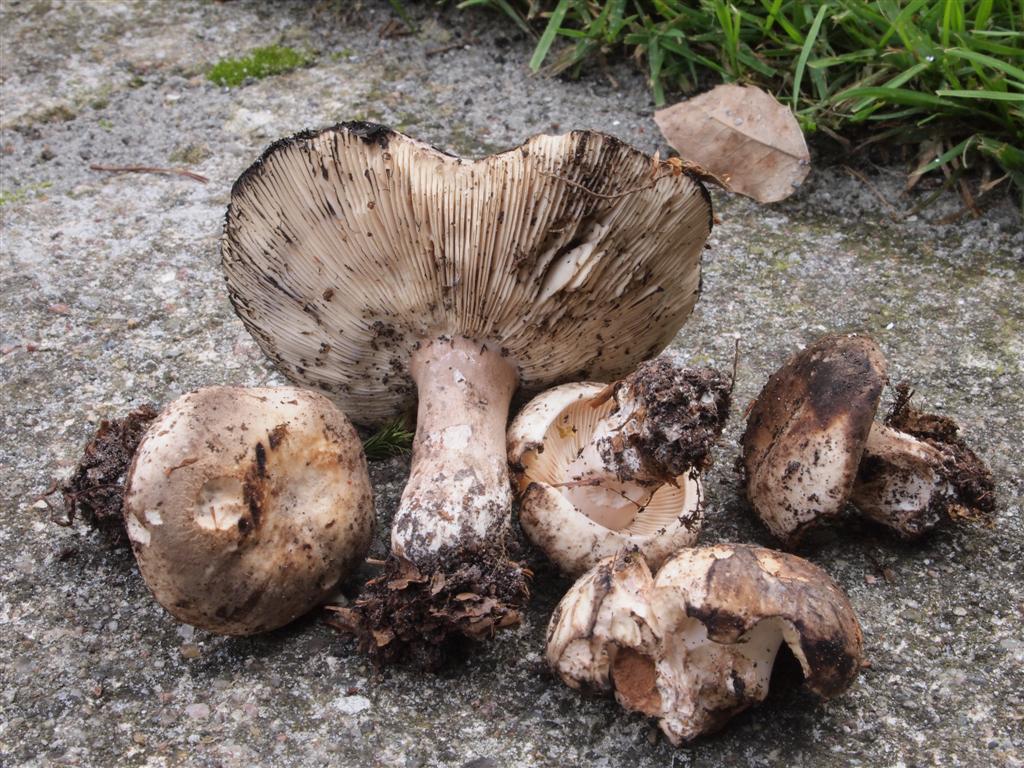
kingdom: Fungi
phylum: Basidiomycota
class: Agaricomycetes
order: Russulales
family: Russulaceae
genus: Russula
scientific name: Russula densifolia
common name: tætbladet skørhat
